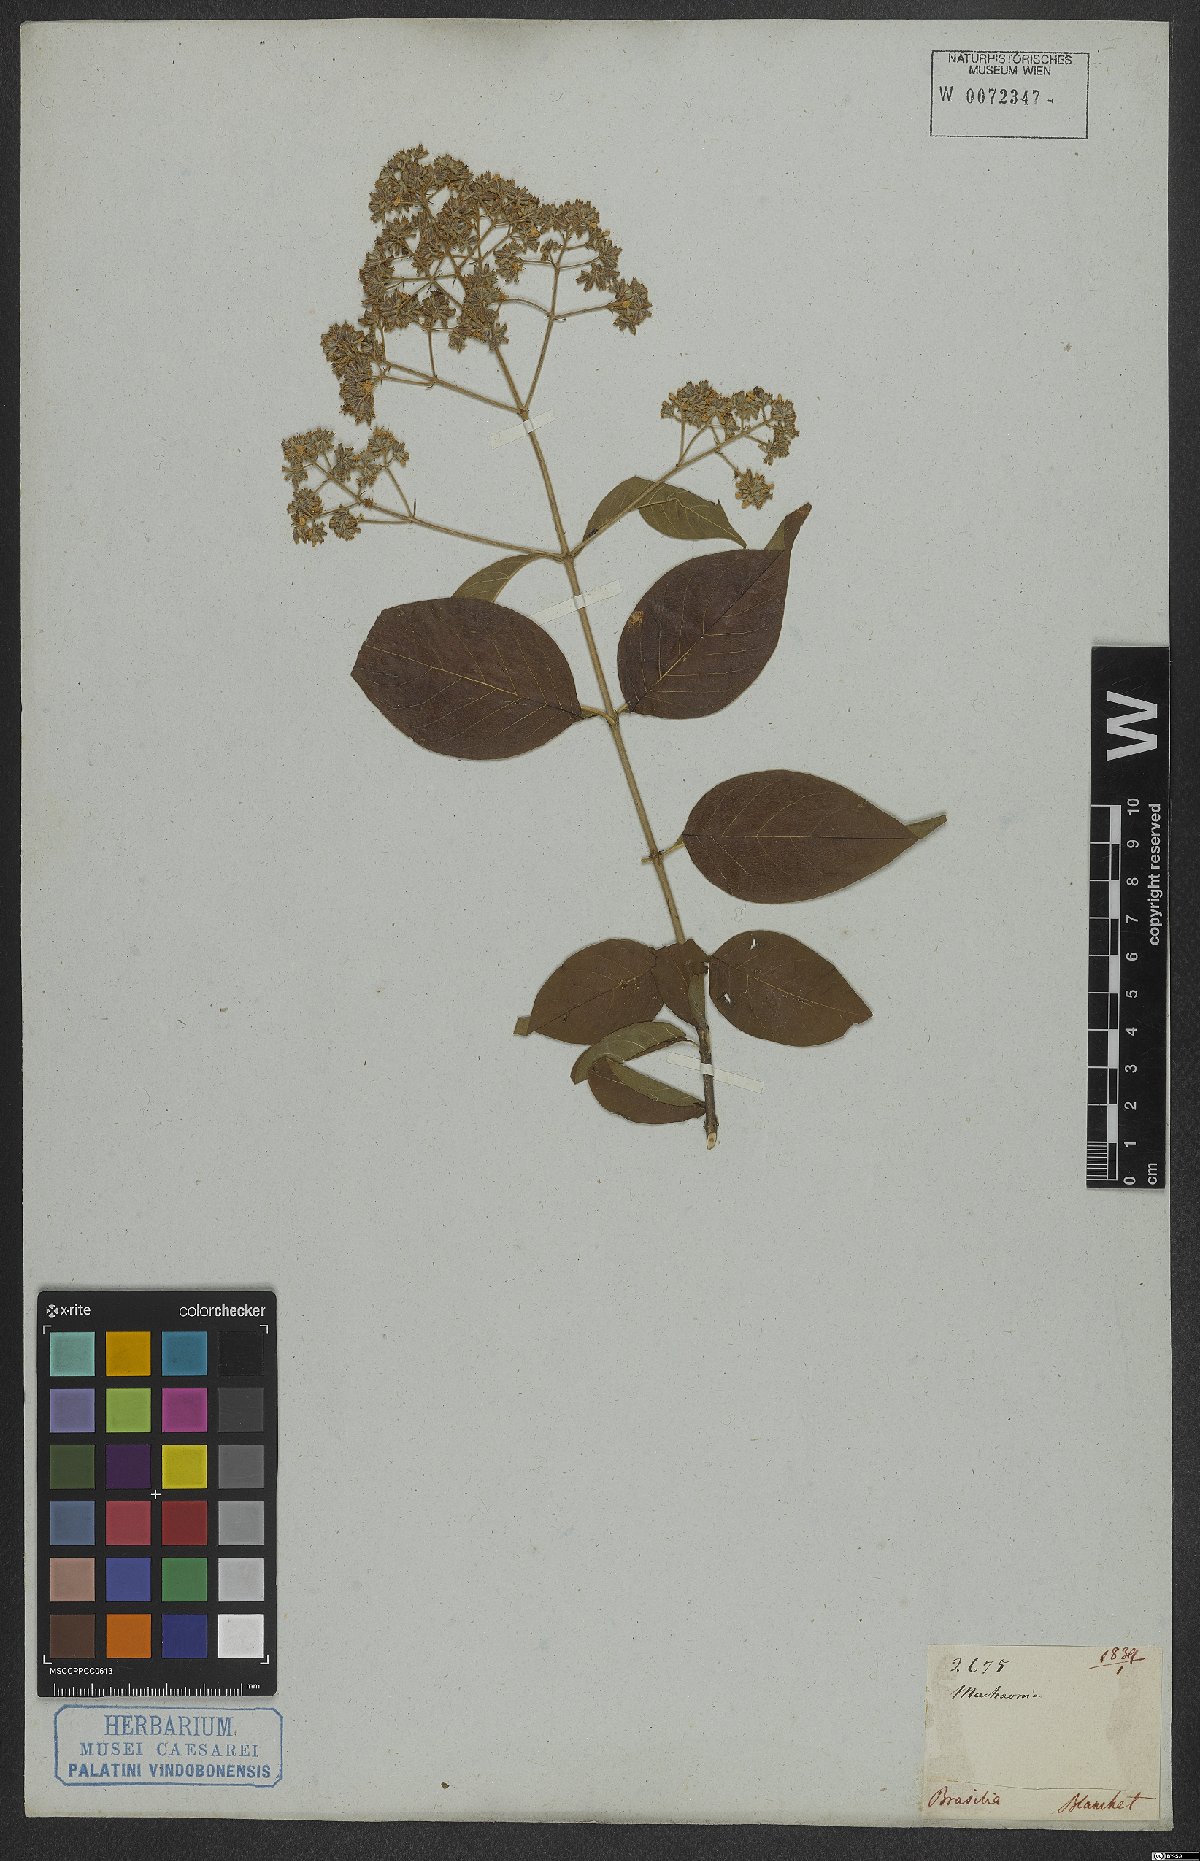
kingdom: Plantae
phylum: Tracheophyta
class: Magnoliopsida
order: Gentianales
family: Rubiaceae
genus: Machaonia
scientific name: Machaonia
